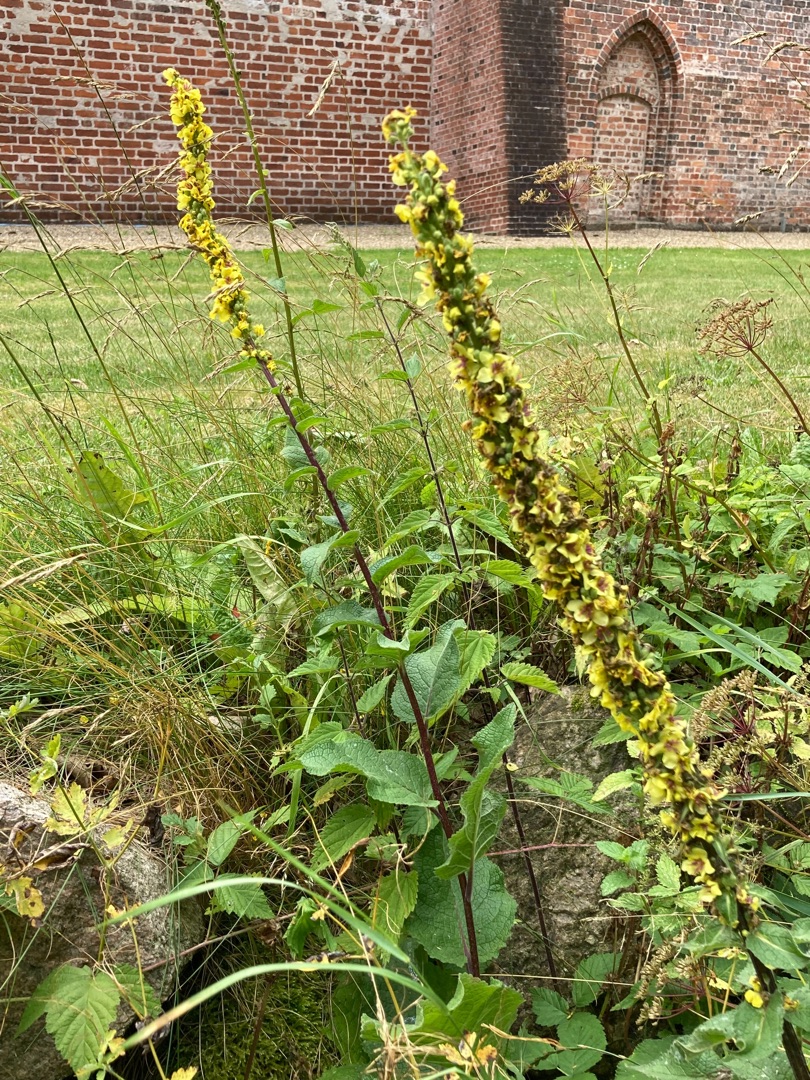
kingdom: Plantae
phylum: Tracheophyta
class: Magnoliopsida
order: Lamiales
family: Scrophulariaceae
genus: Verbascum
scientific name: Verbascum nigrum
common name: Mørk kongelys
